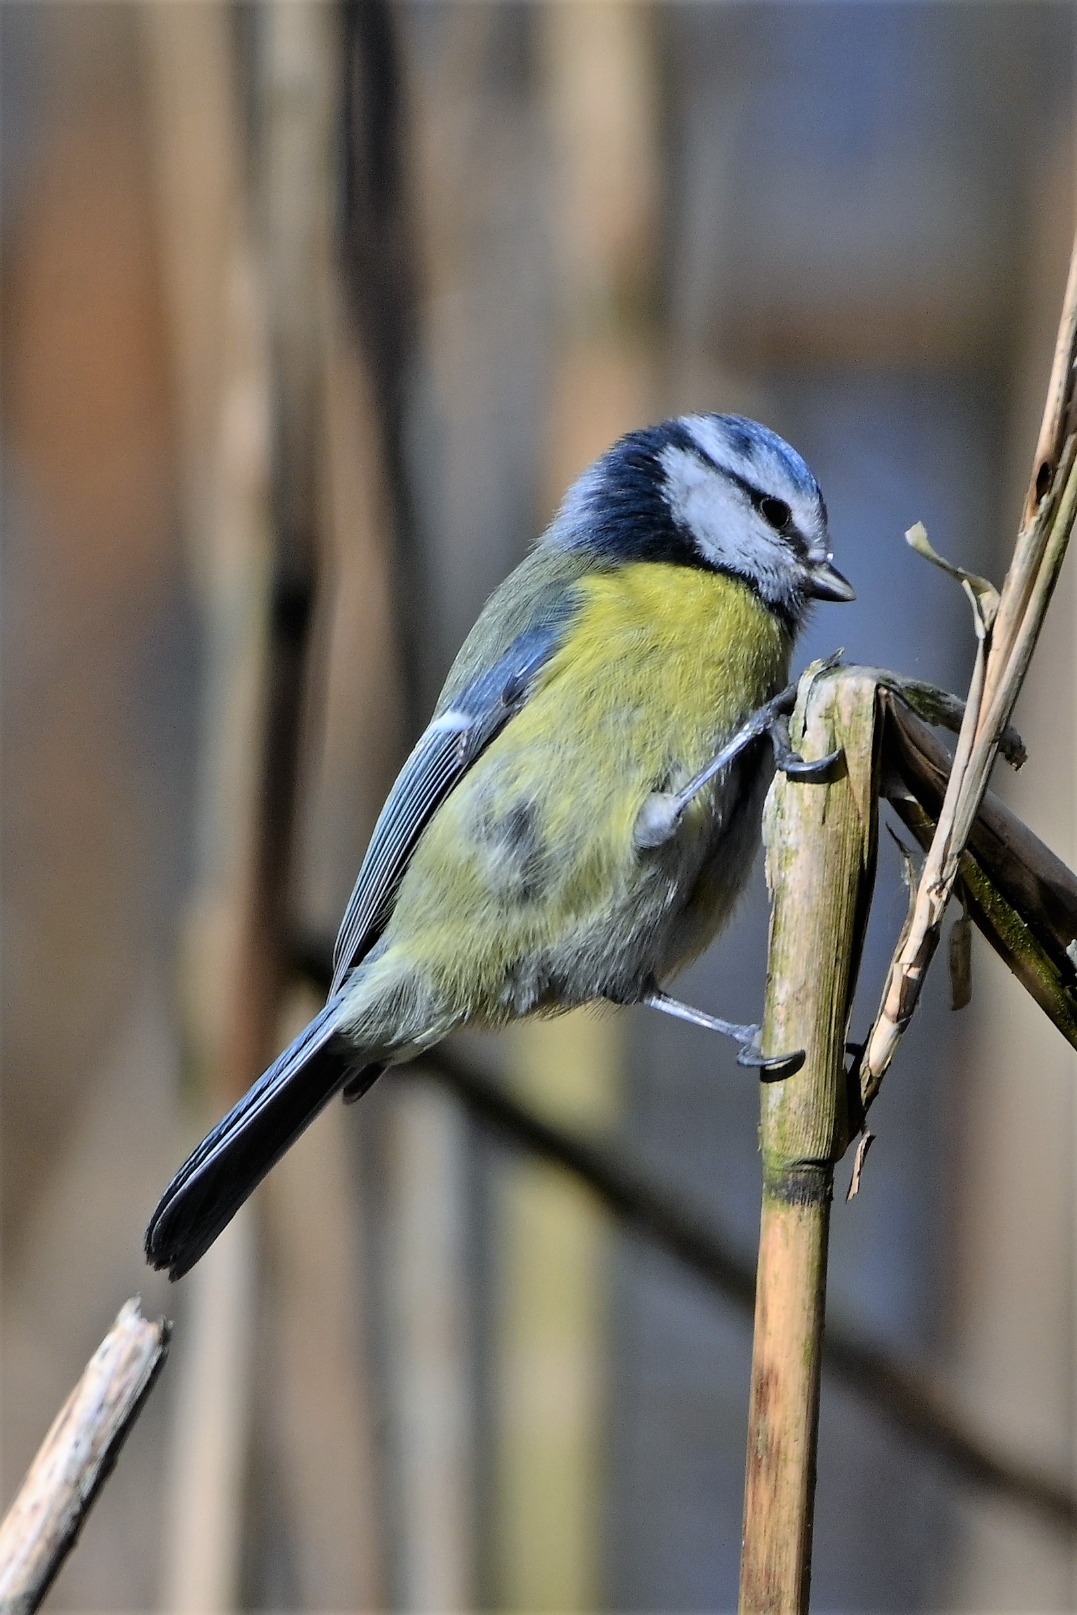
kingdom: Animalia
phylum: Chordata
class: Aves
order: Passeriformes
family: Paridae
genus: Cyanistes
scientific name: Cyanistes caeruleus
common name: Blåmejse
